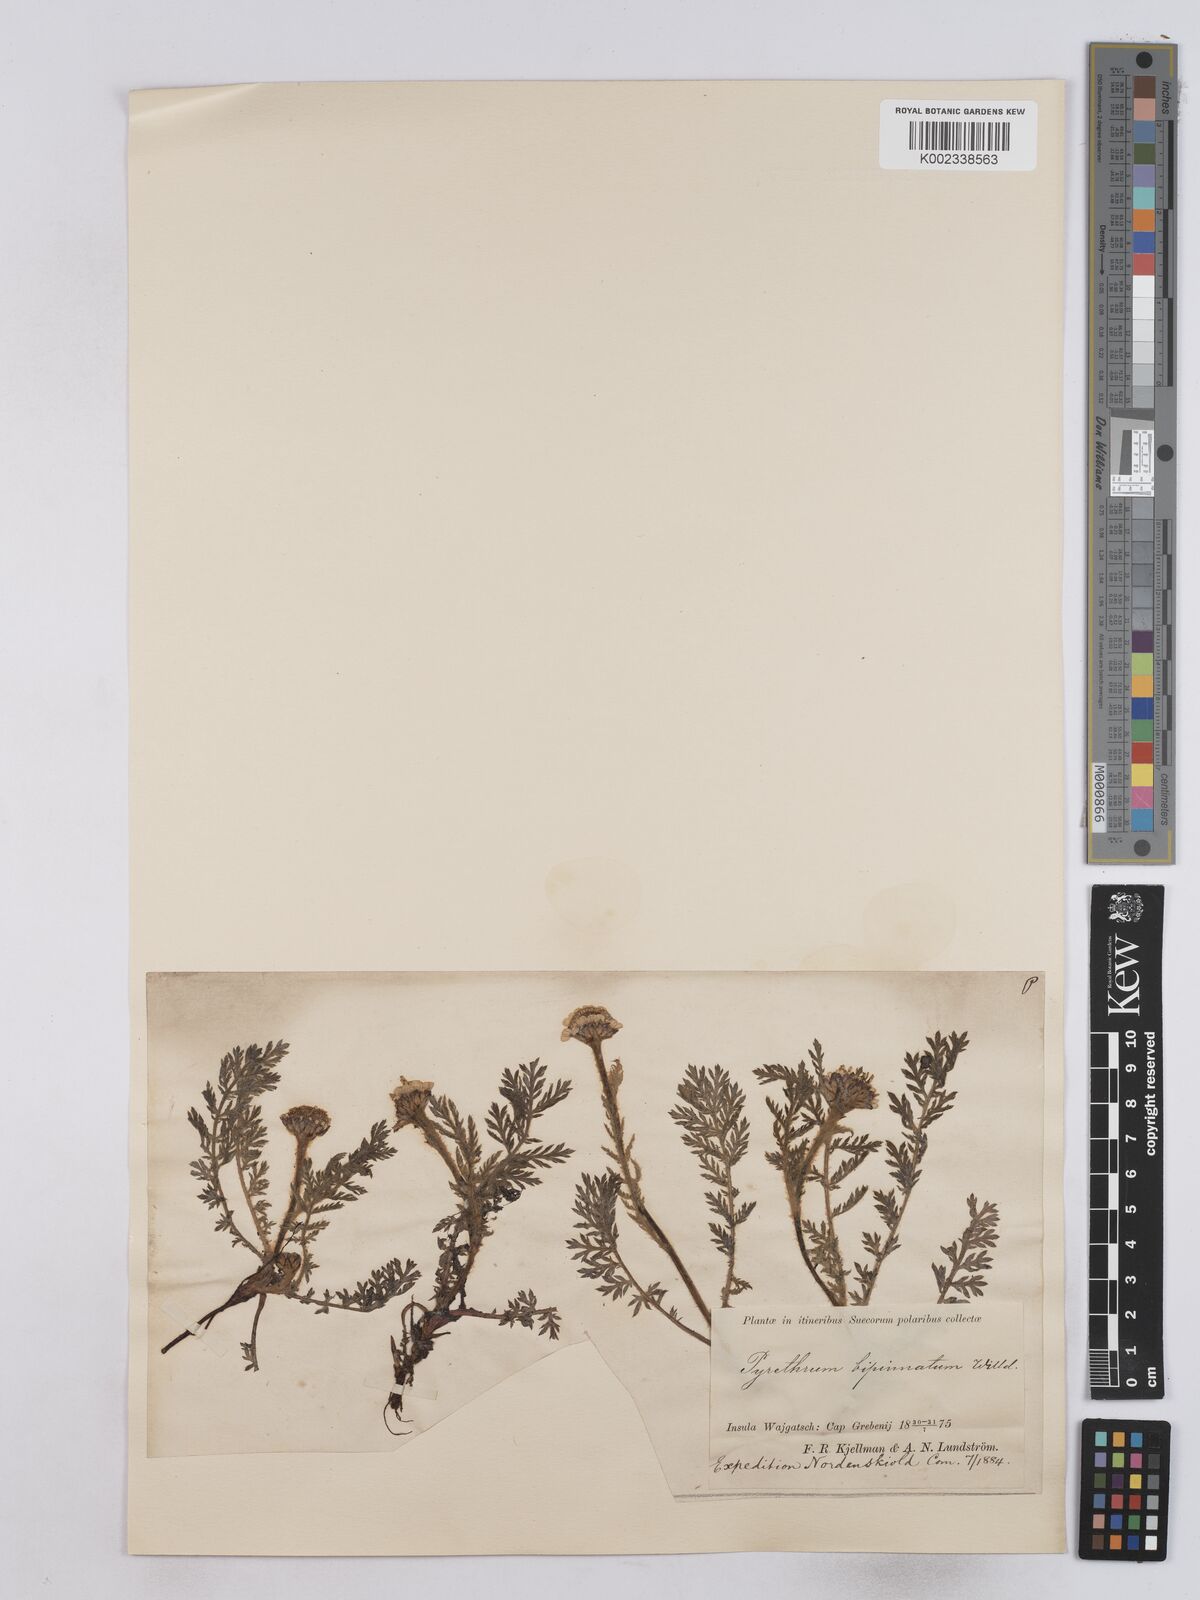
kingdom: Plantae
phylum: Tracheophyta
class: Magnoliopsida
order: Asterales
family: Asteraceae
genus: Tanacetum
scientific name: Tanacetum bipinnatum
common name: Dwarf tansy
